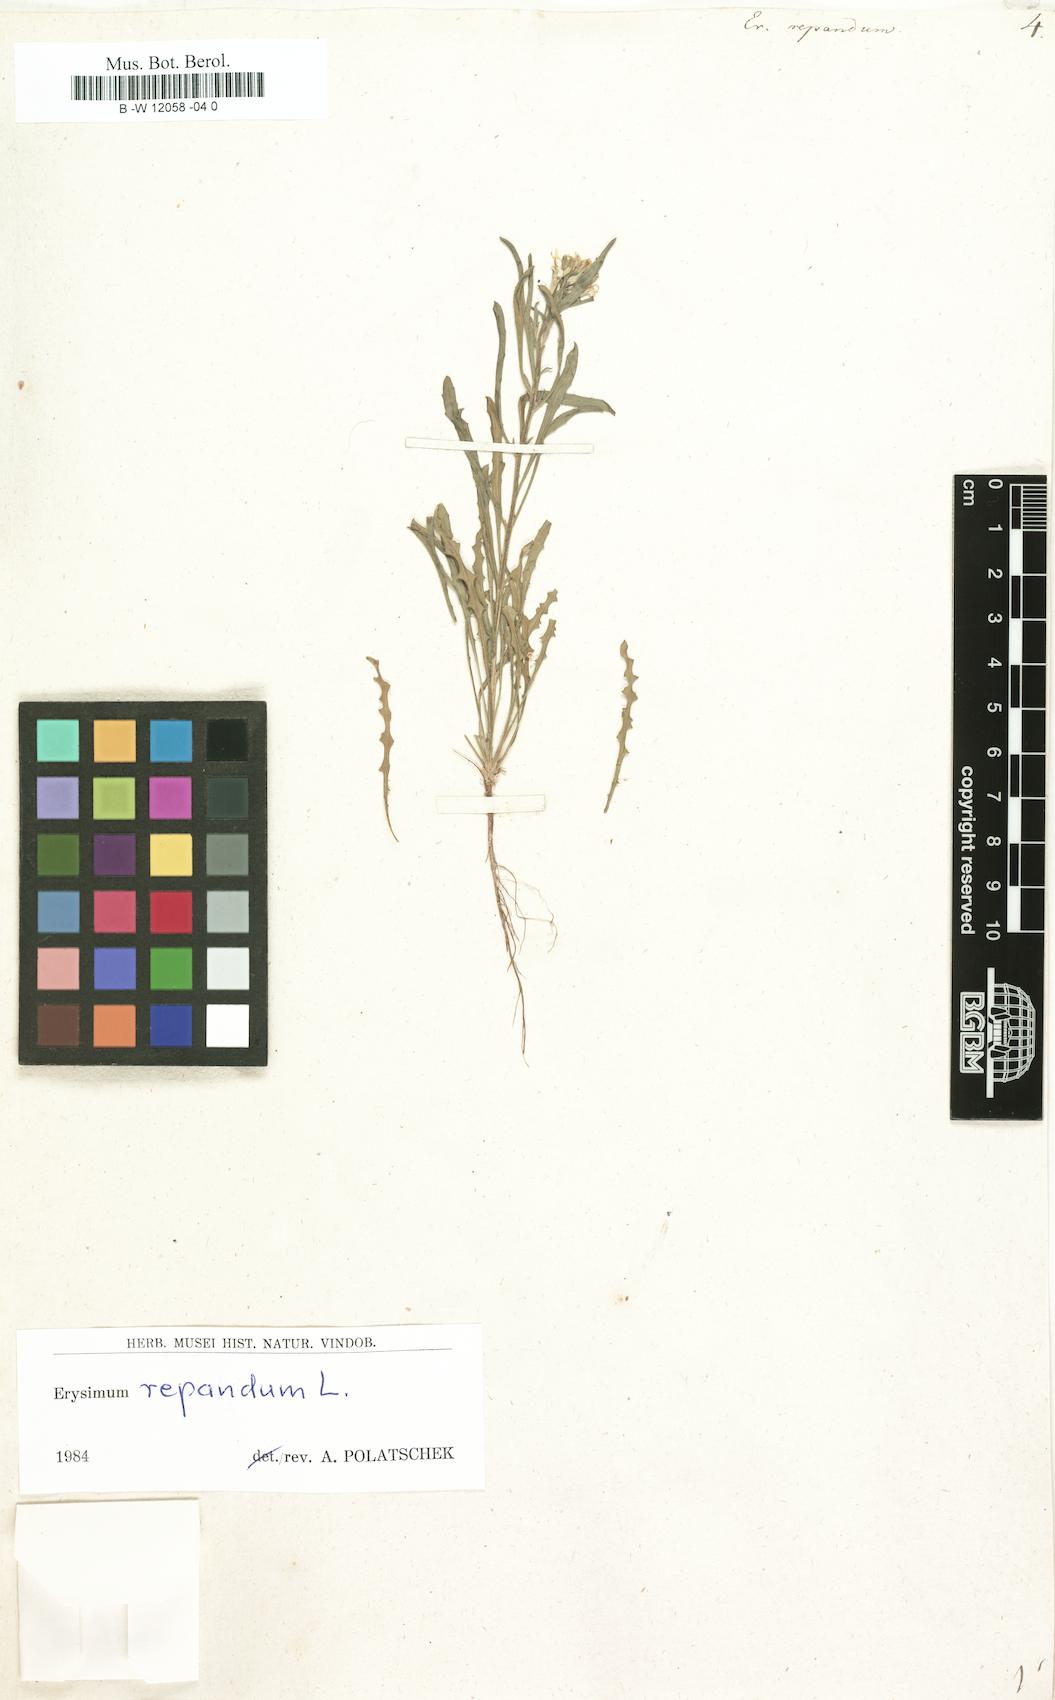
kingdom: Plantae
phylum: Tracheophyta
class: Magnoliopsida
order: Brassicales
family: Brassicaceae
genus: Erysimum
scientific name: Erysimum repandum
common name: Spreading wallflower
